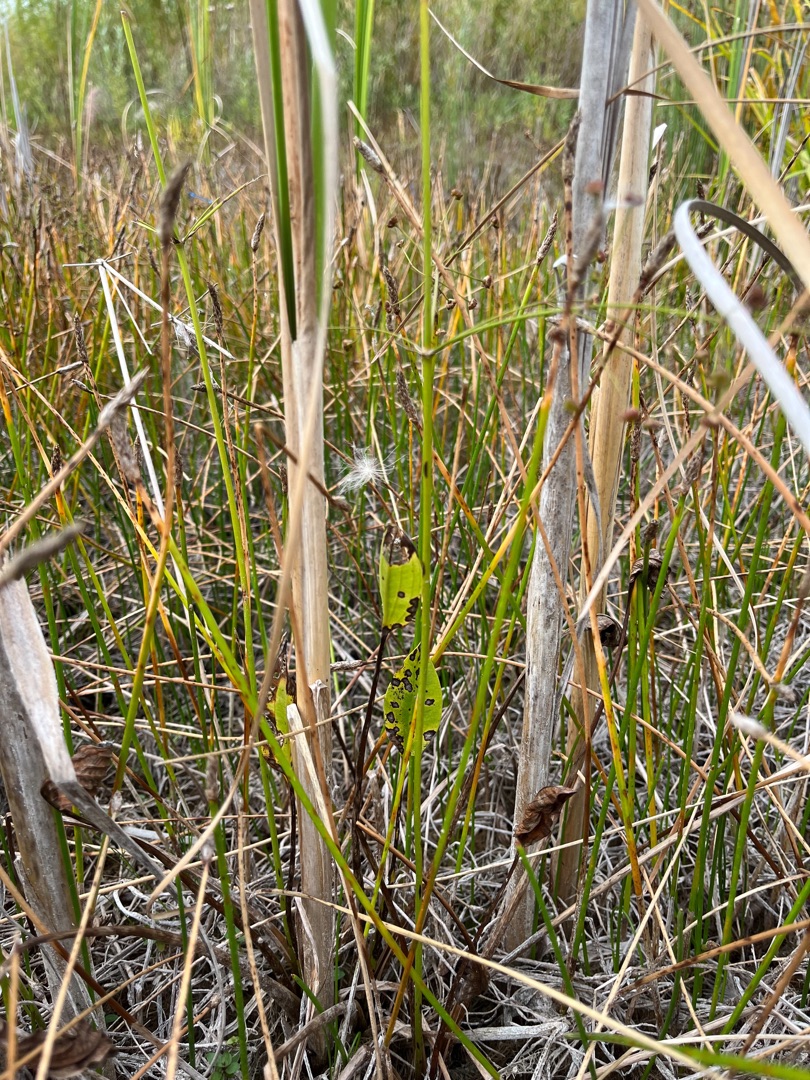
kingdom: Plantae
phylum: Tracheophyta
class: Liliopsida
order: Alismatales
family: Alismataceae
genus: Alisma
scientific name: Alisma plantago-aquatica
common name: Vejbred-skeblad
